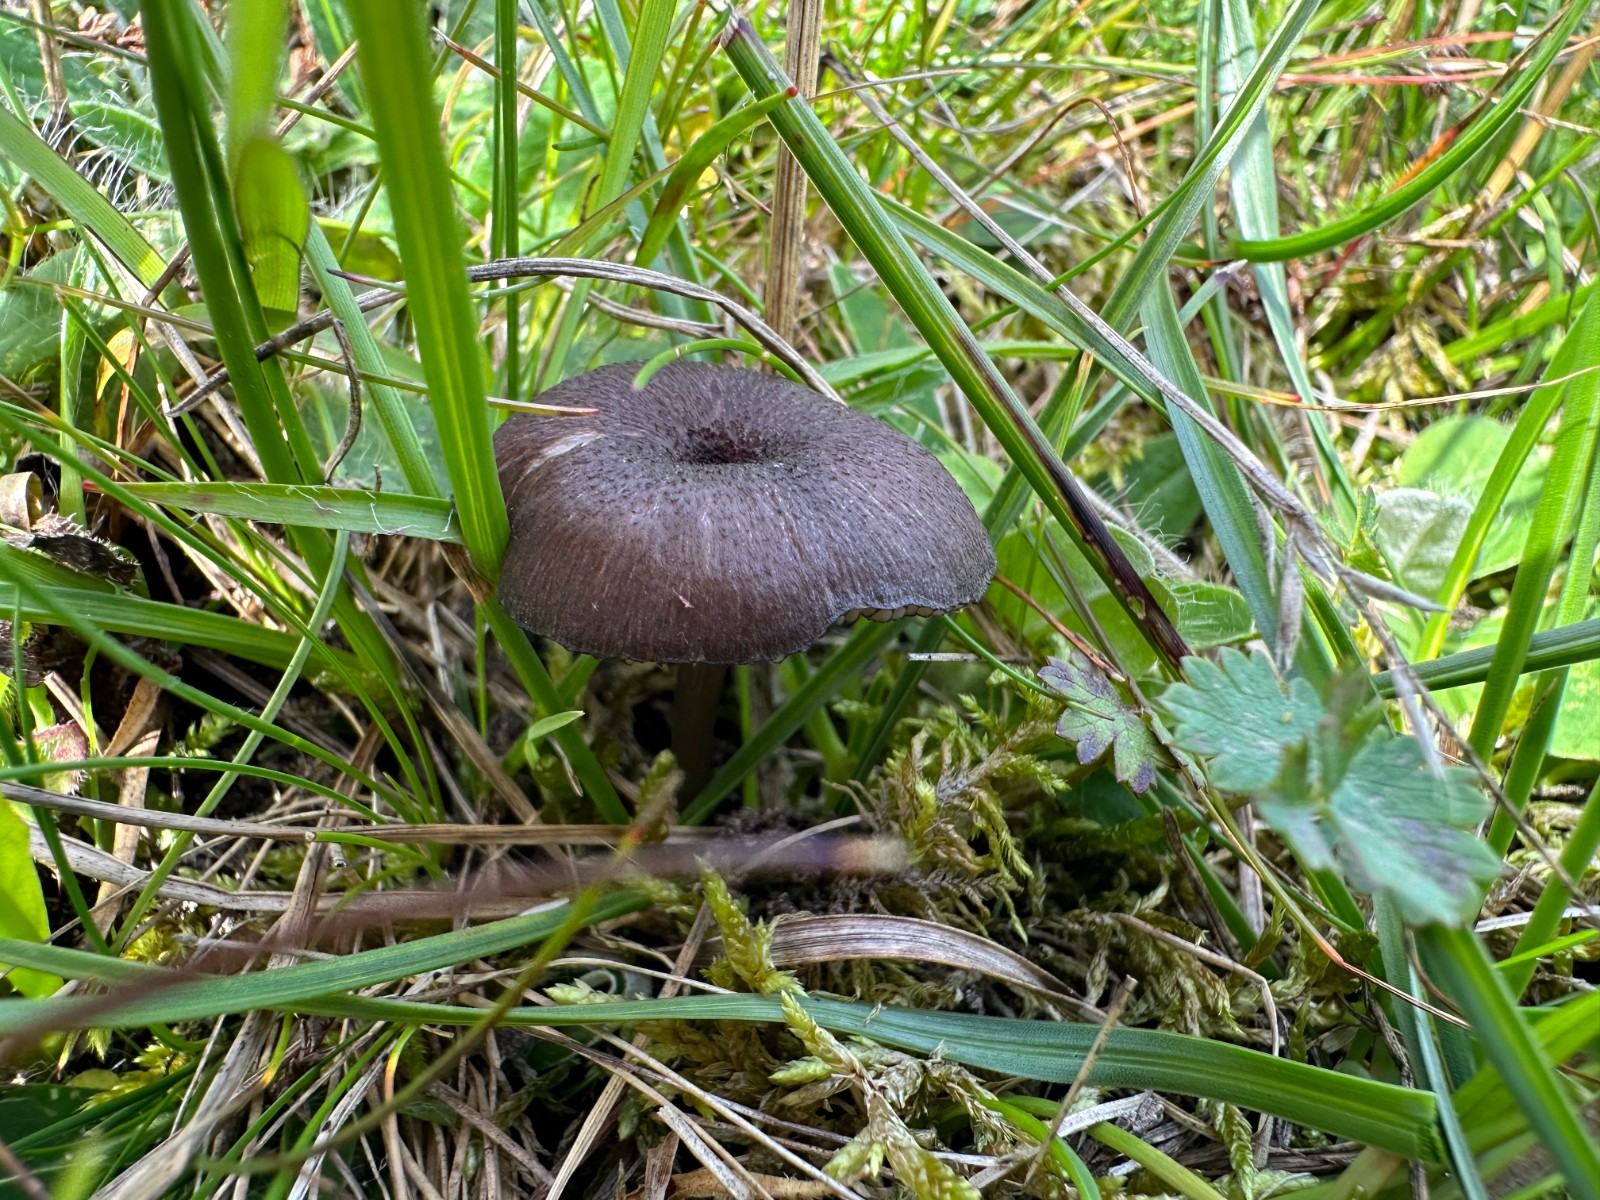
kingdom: Fungi
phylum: Basidiomycota
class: Agaricomycetes
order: Agaricales
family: Entolomataceae
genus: Entoloma
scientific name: Entoloma
